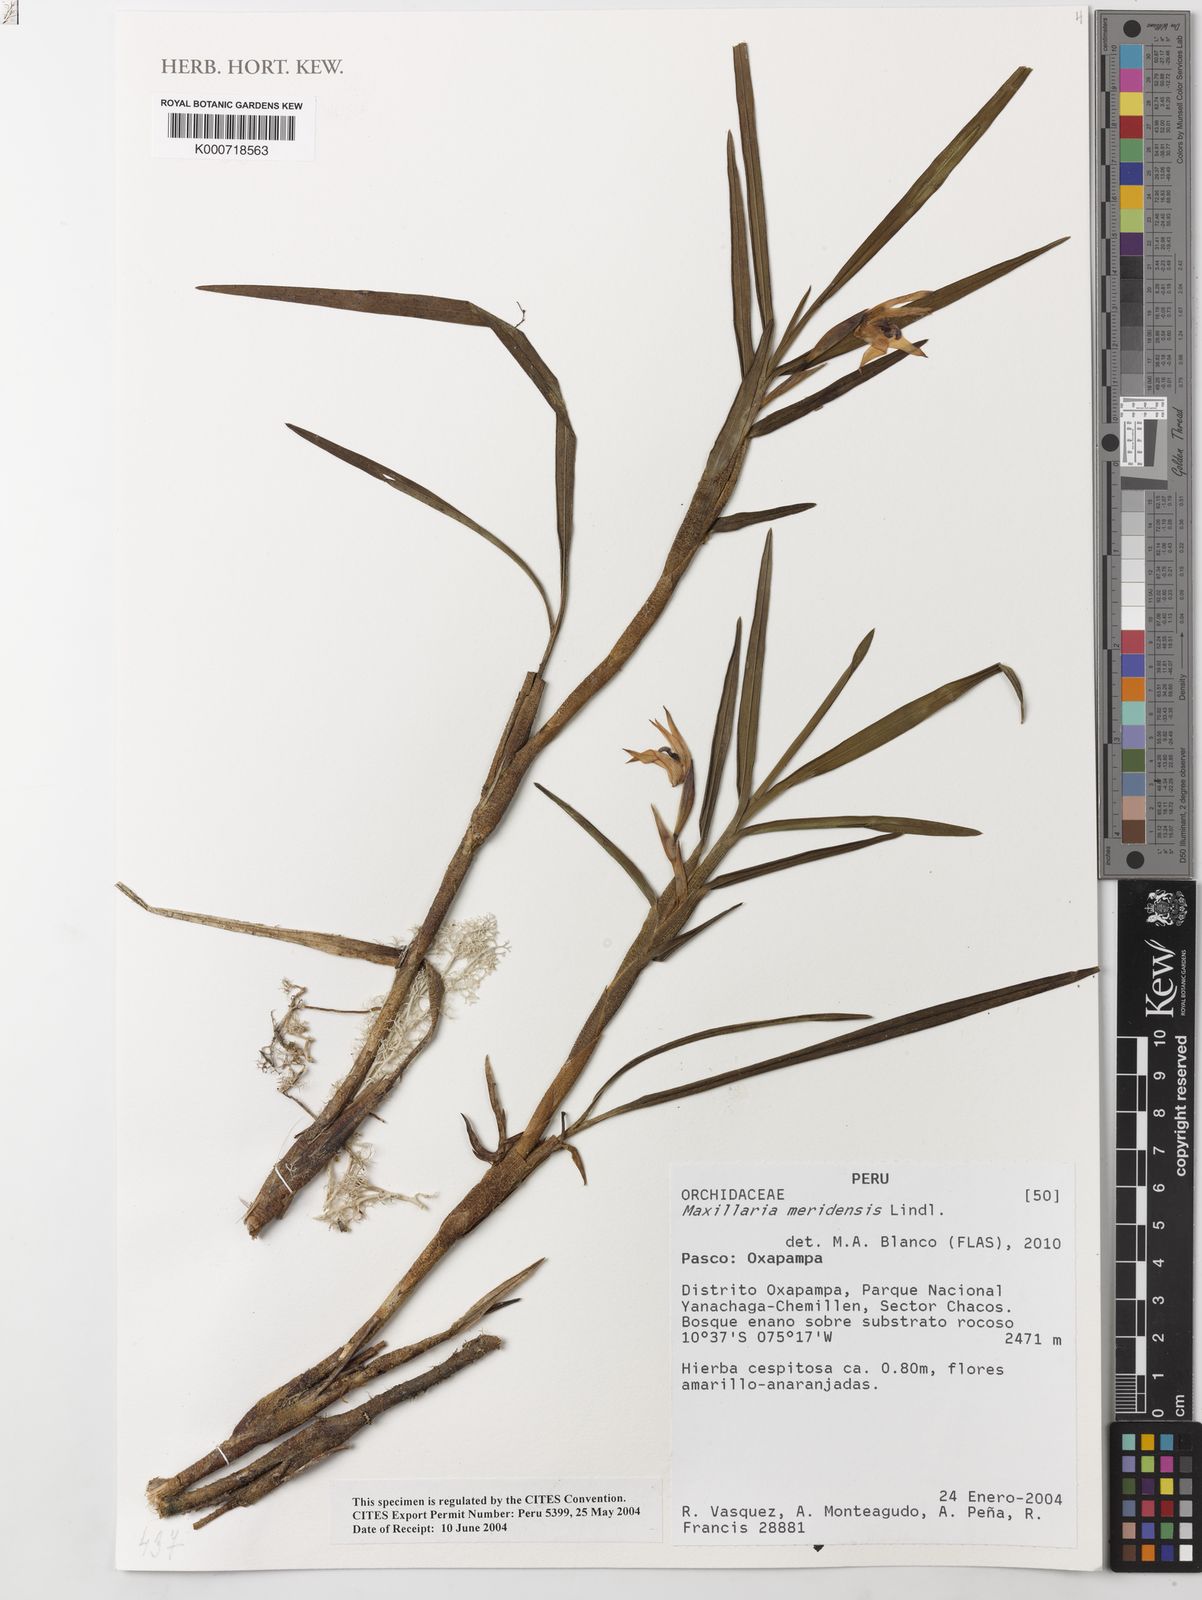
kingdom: Plantae
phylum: Tracheophyta
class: Liliopsida
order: Asparagales
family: Orchidaceae
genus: Maxillaria
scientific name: Maxillaria meridensis
